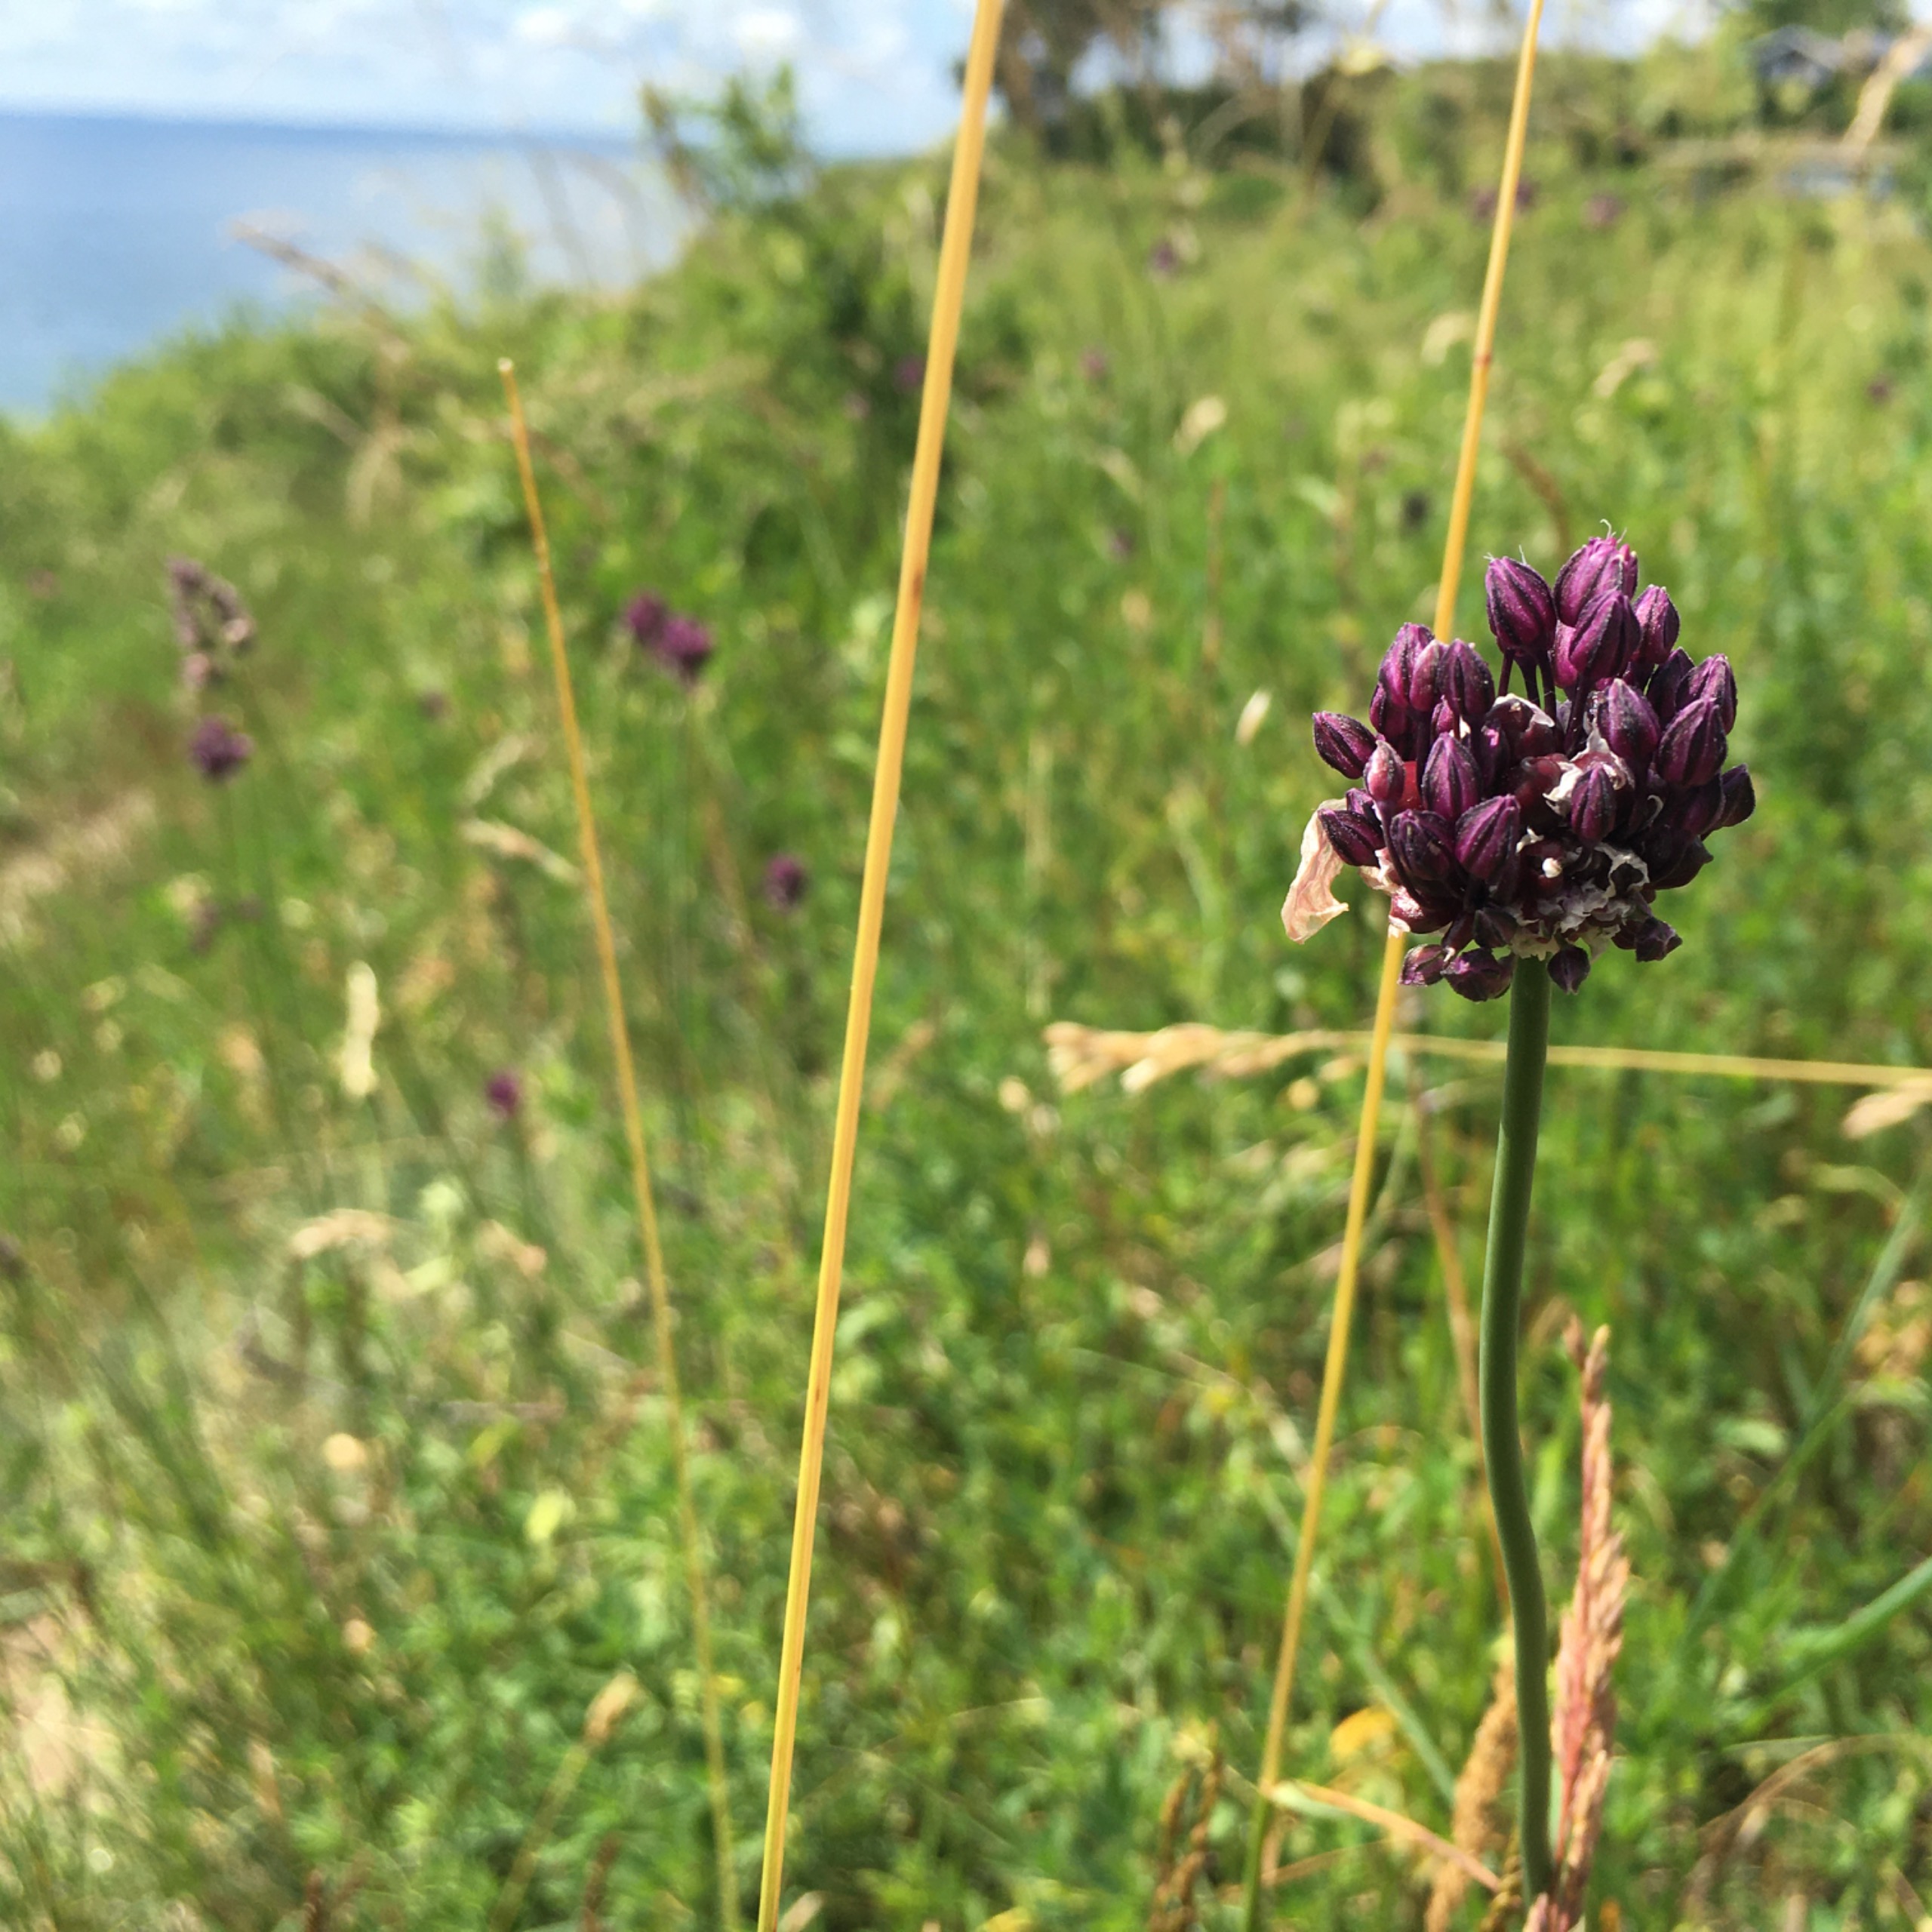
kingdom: Plantae
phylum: Tracheophyta
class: Liliopsida
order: Asparagales
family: Amaryllidaceae
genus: Allium
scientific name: Allium scorodoprasum
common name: Skov-løg
